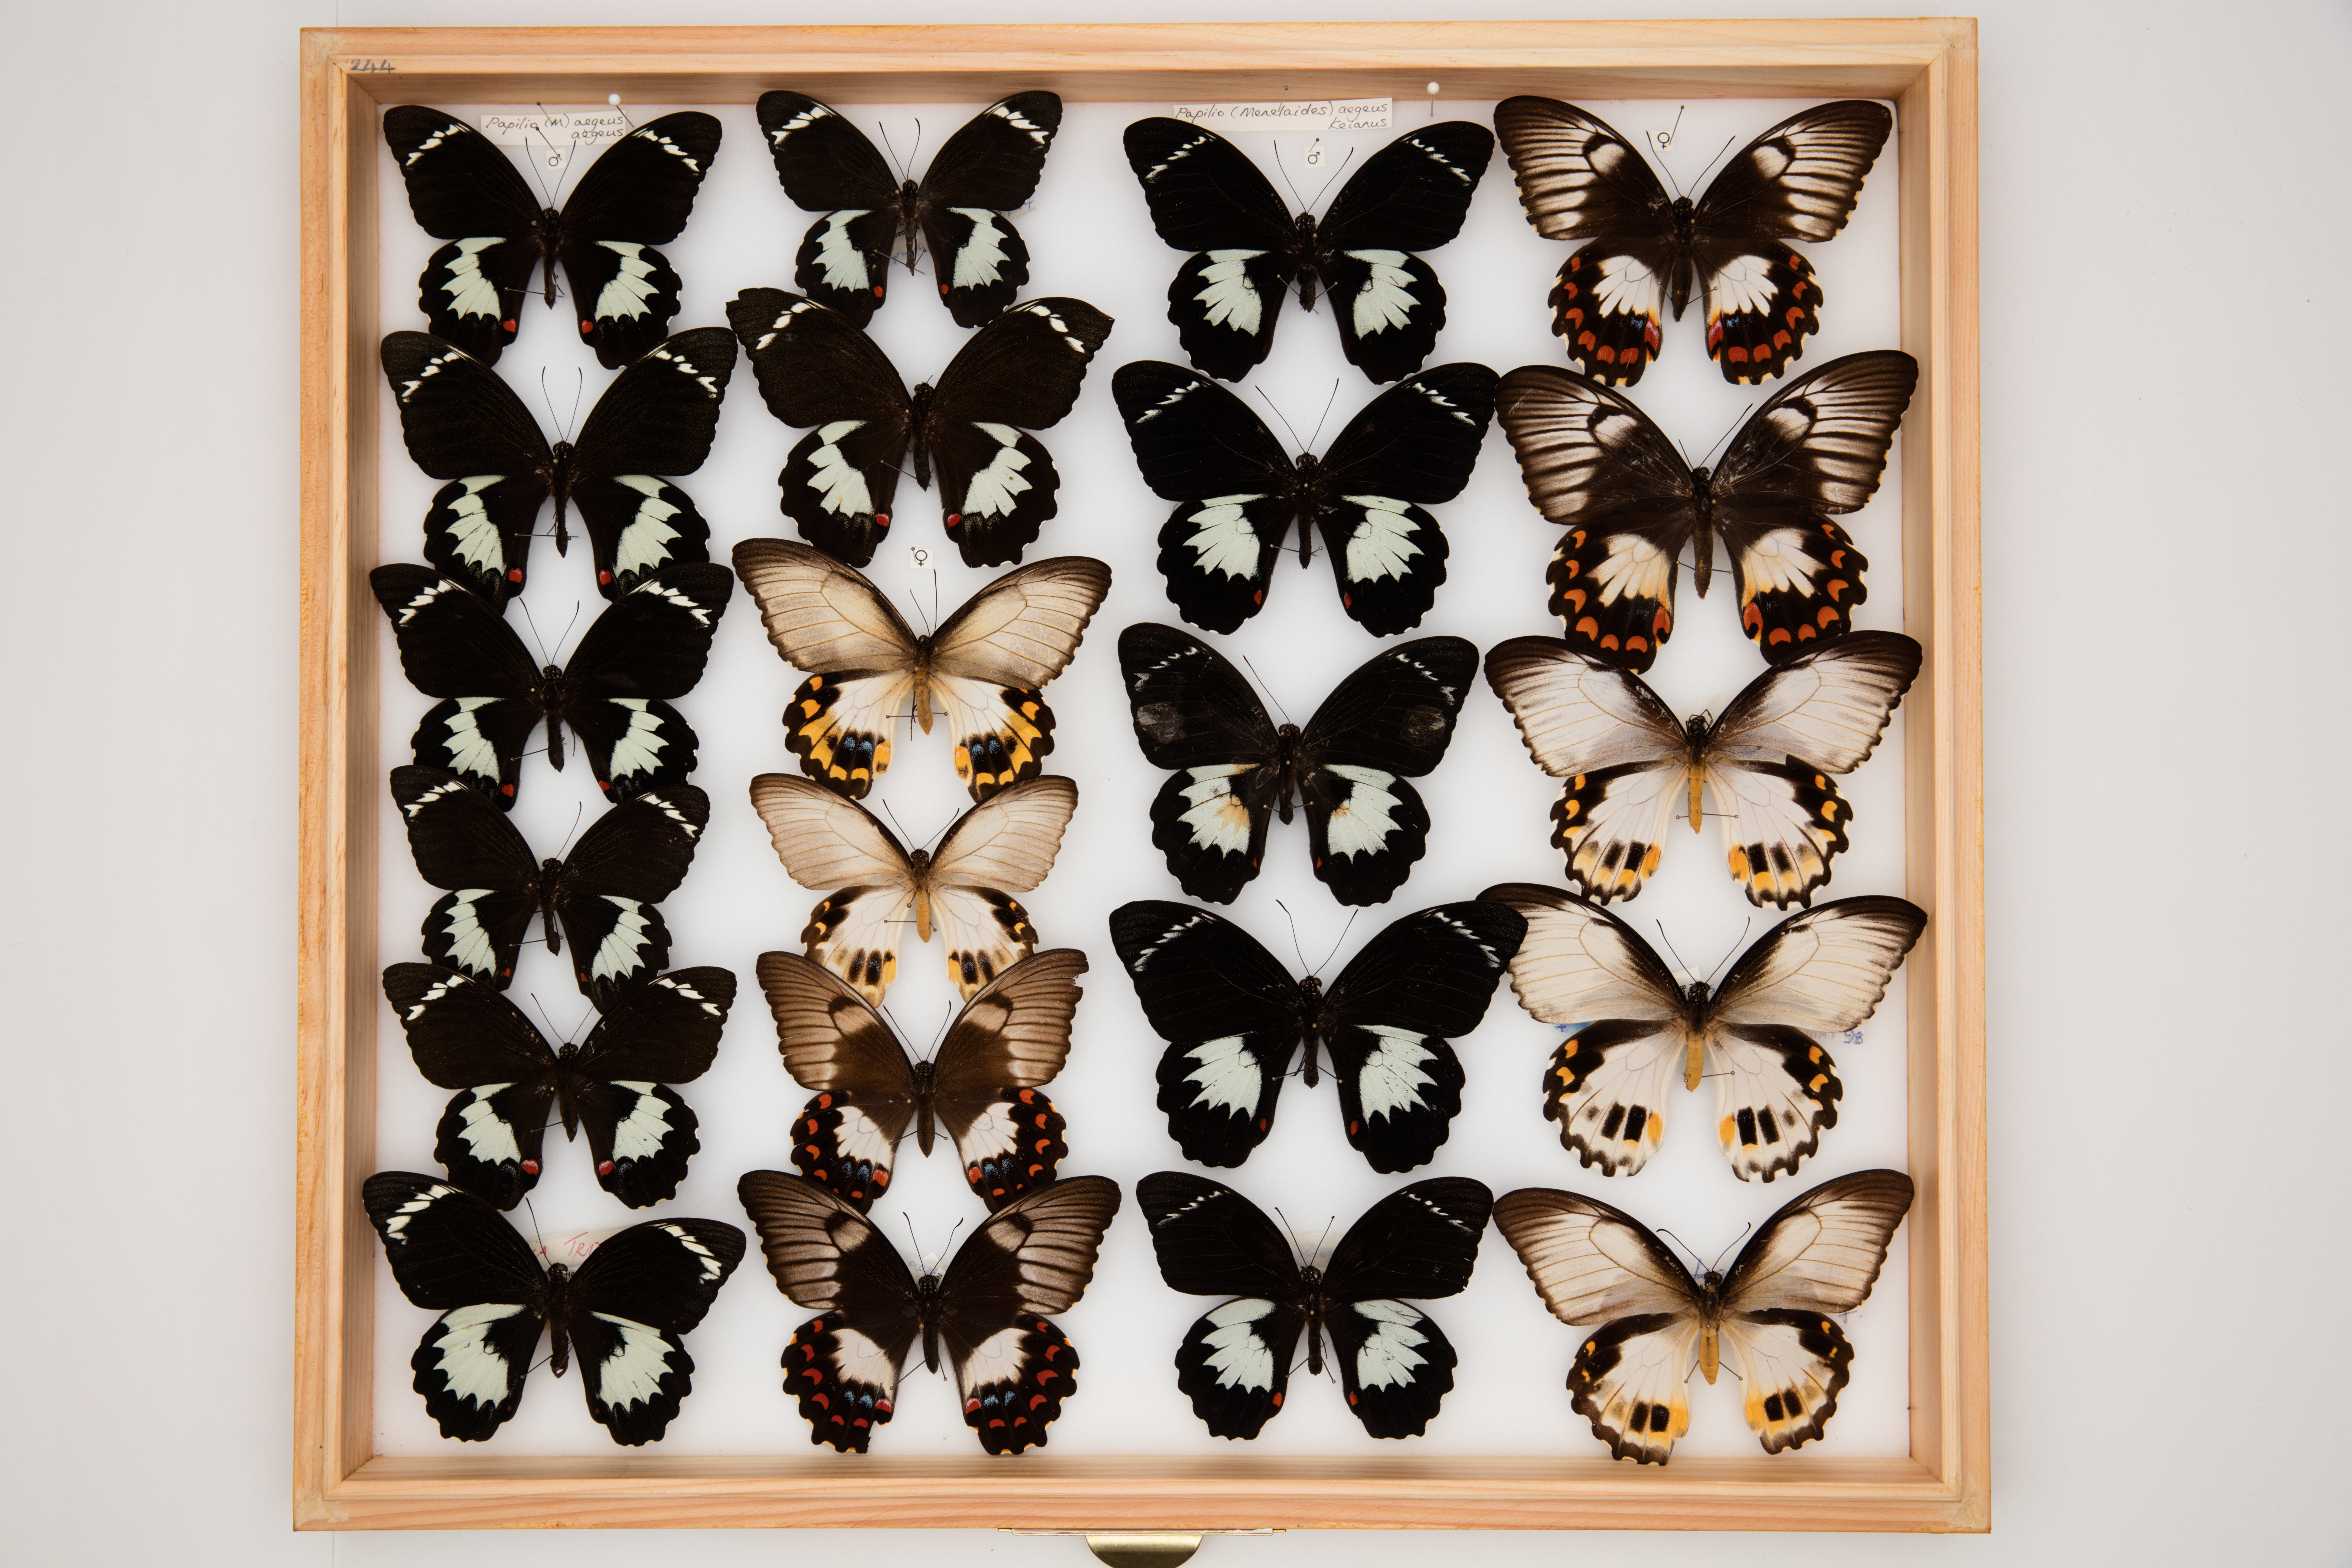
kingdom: Animalia
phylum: Arthropoda
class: Insecta
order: Lepidoptera
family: Papilionidae
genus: Papilio
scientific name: Papilio aegeus
